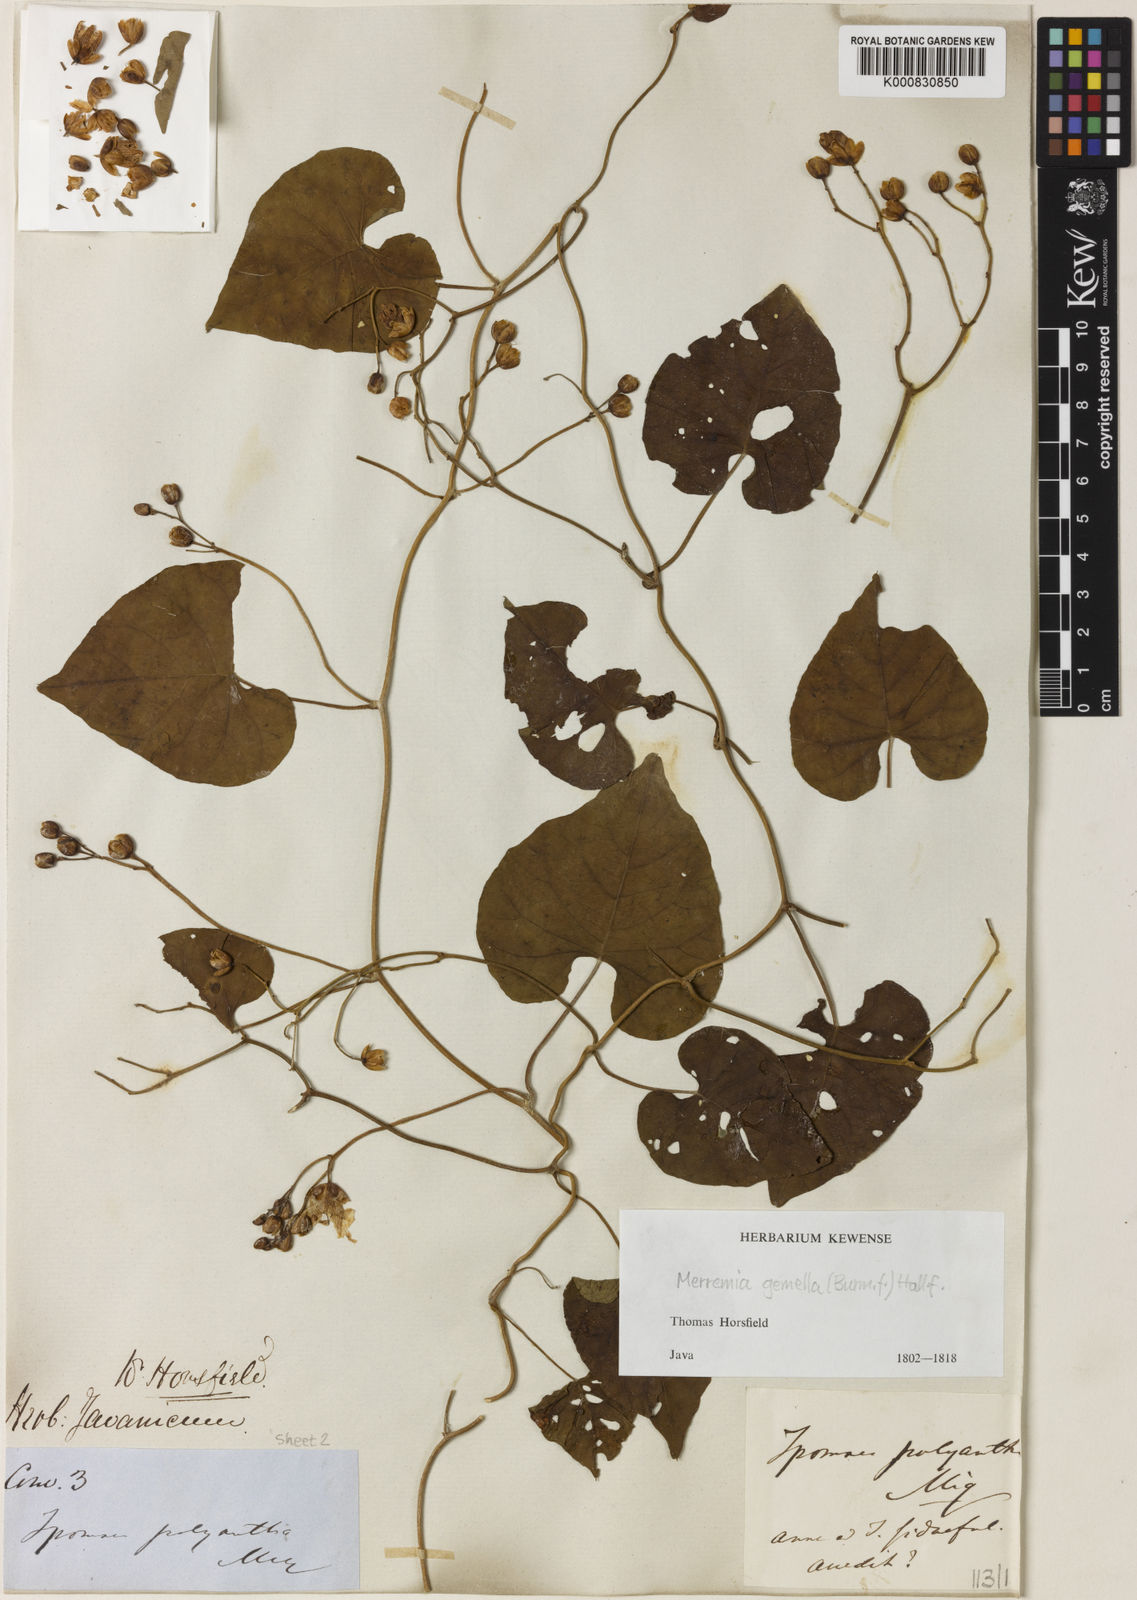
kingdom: Plantae
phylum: Tracheophyta
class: Magnoliopsida
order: Solanales
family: Convolvulaceae
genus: Merremia
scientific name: Merremia gemella
